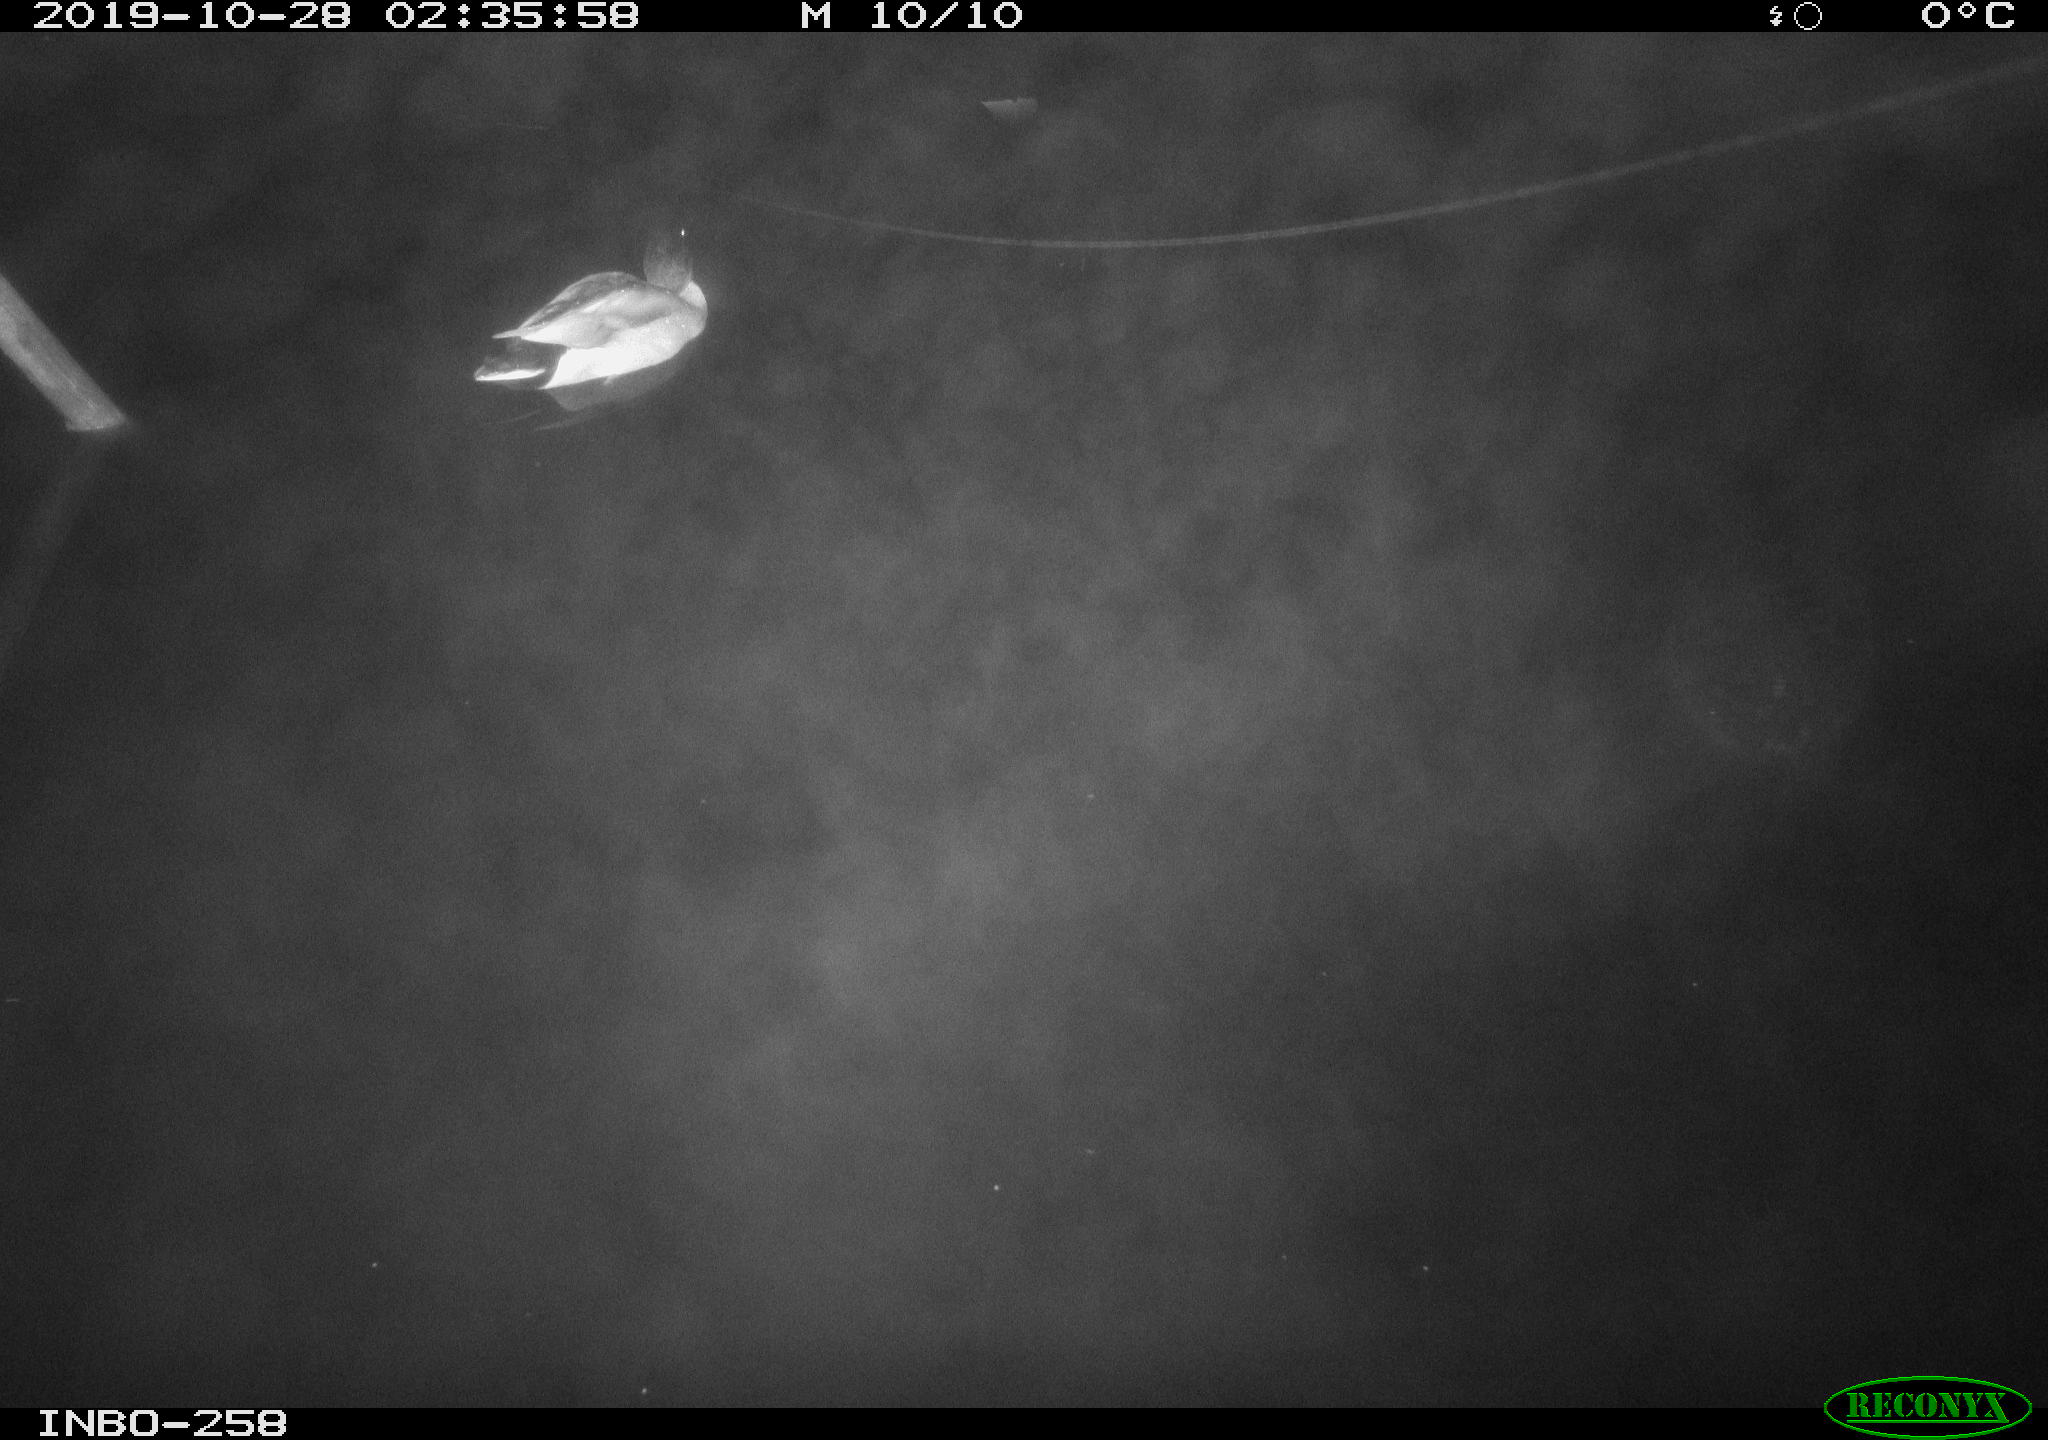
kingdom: Animalia
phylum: Chordata
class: Aves
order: Anseriformes
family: Anatidae
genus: Anas
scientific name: Anas platyrhynchos
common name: Mallard
